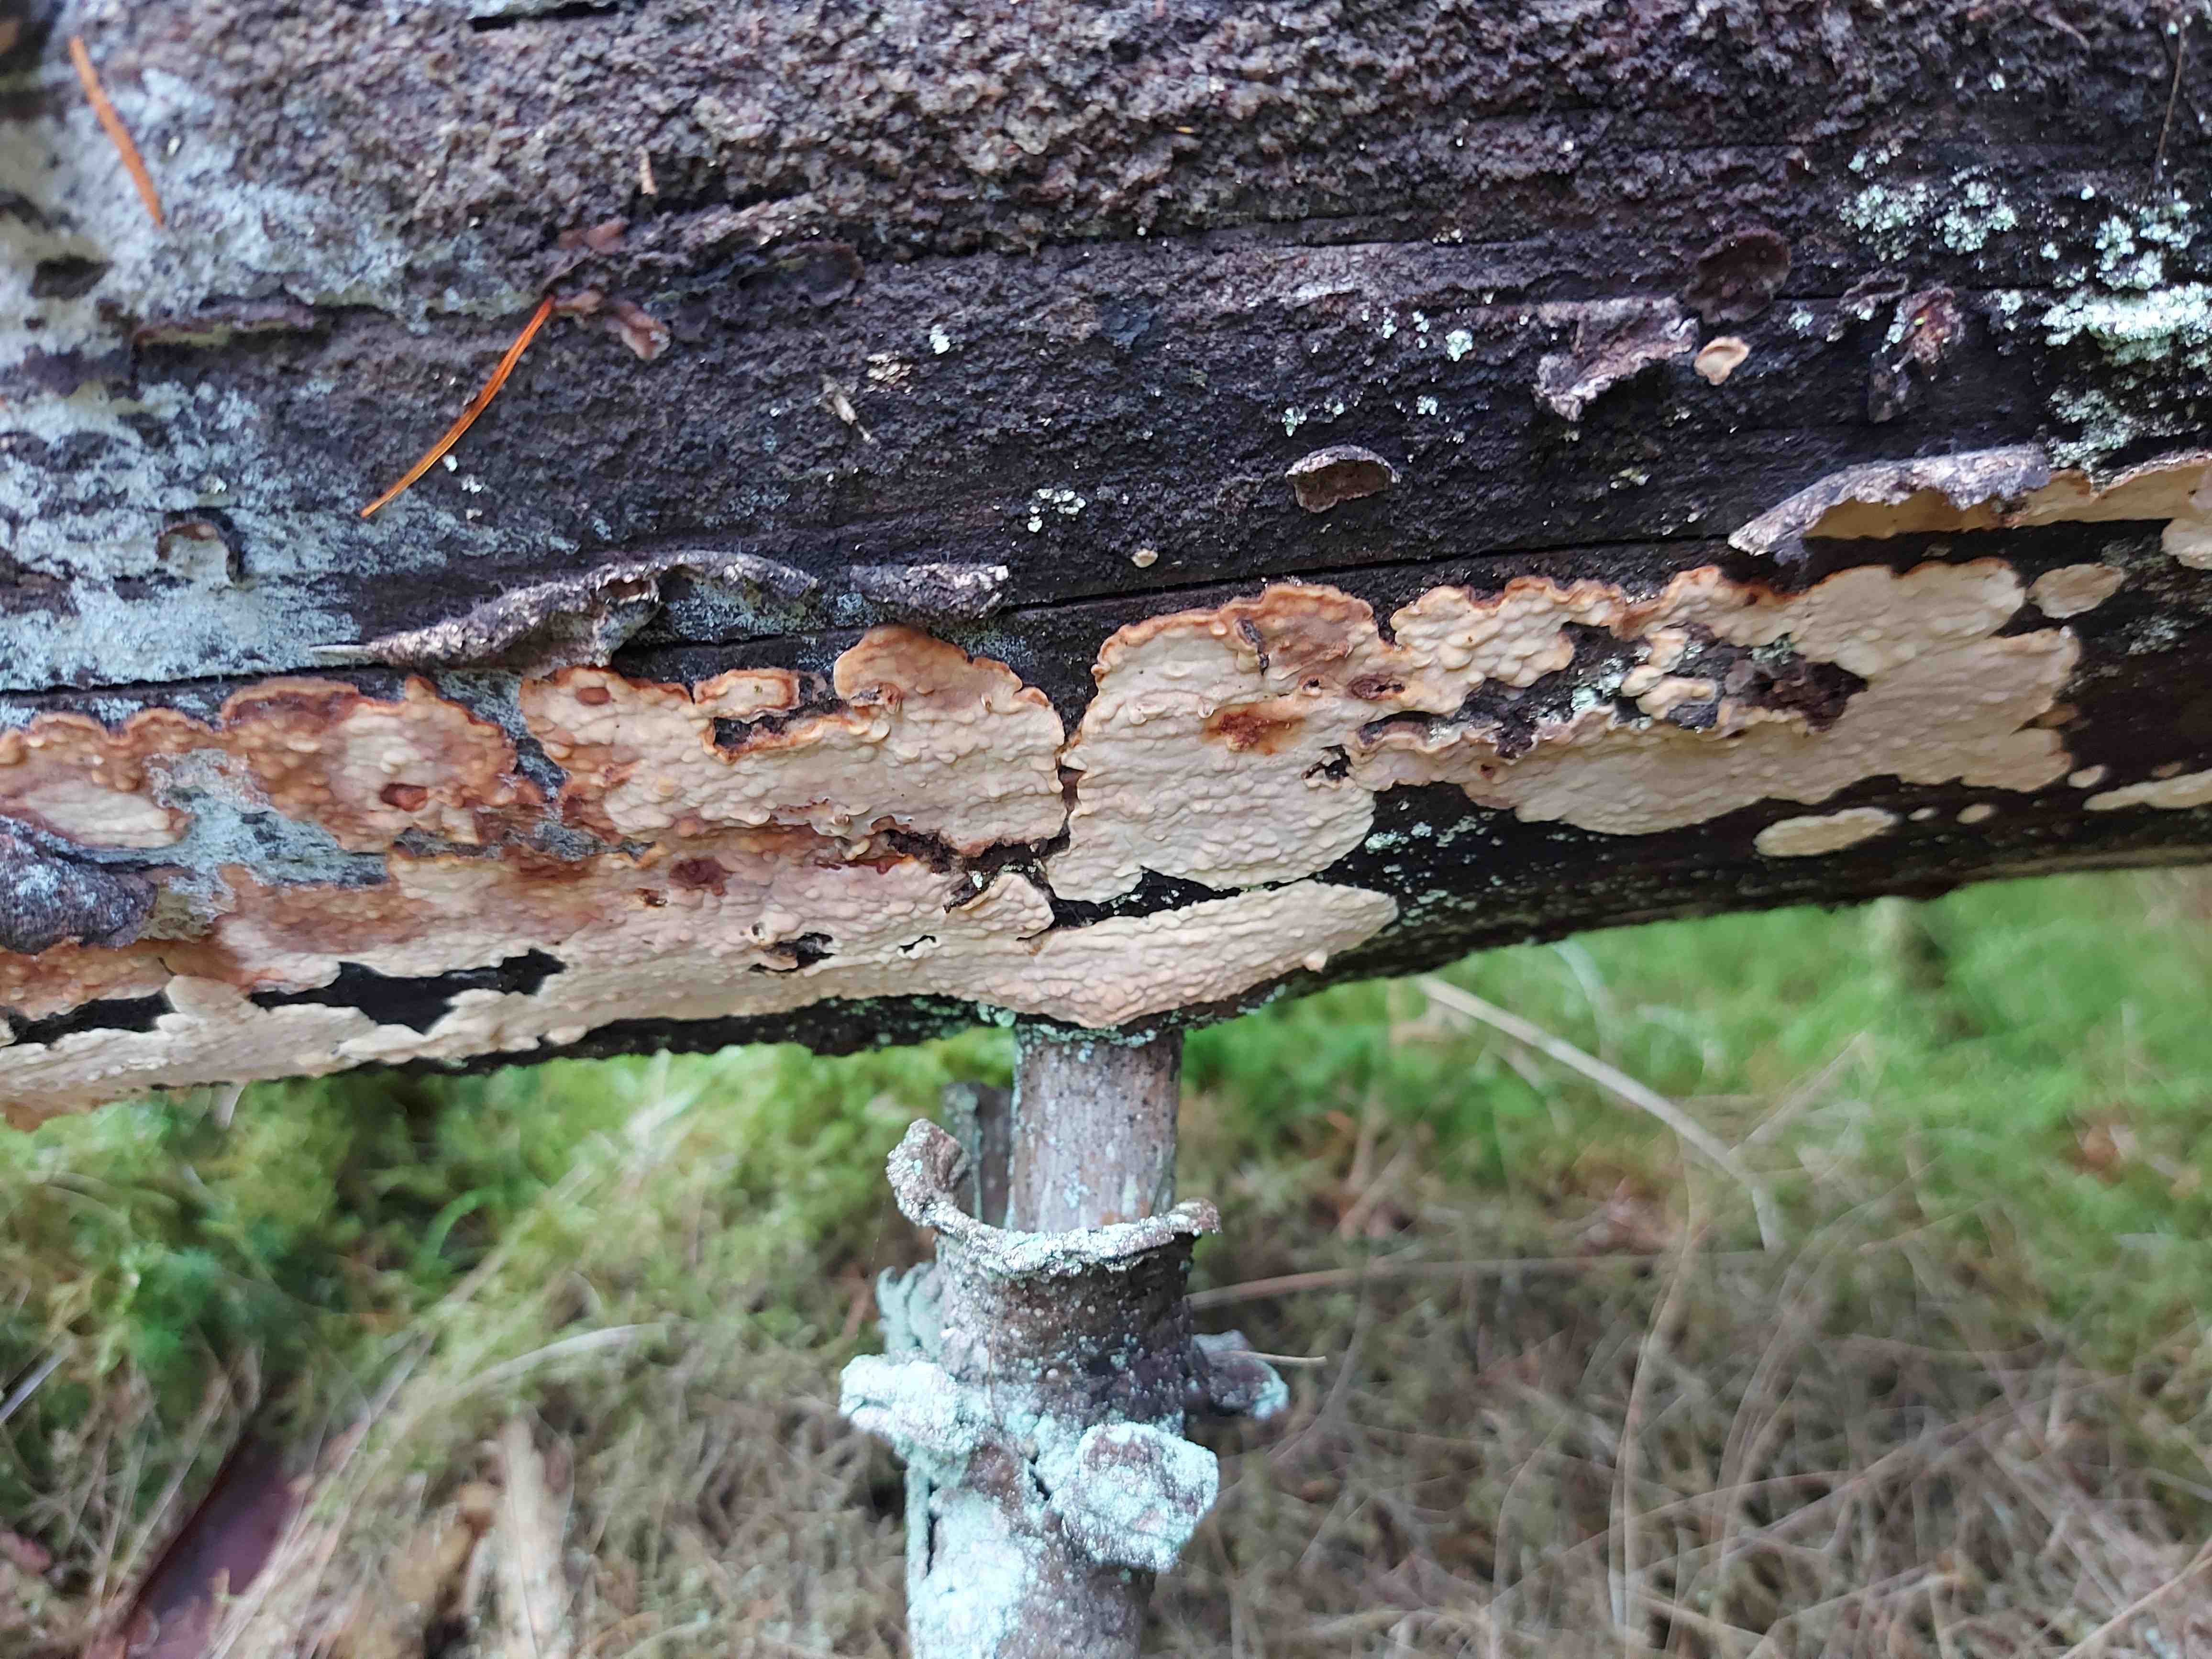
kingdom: Fungi
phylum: Basidiomycota
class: Agaricomycetes
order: Polyporales
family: Dacryobolaceae
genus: Dacryobolus
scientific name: Dacryobolus karstenii
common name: glat vulkanskorpe
